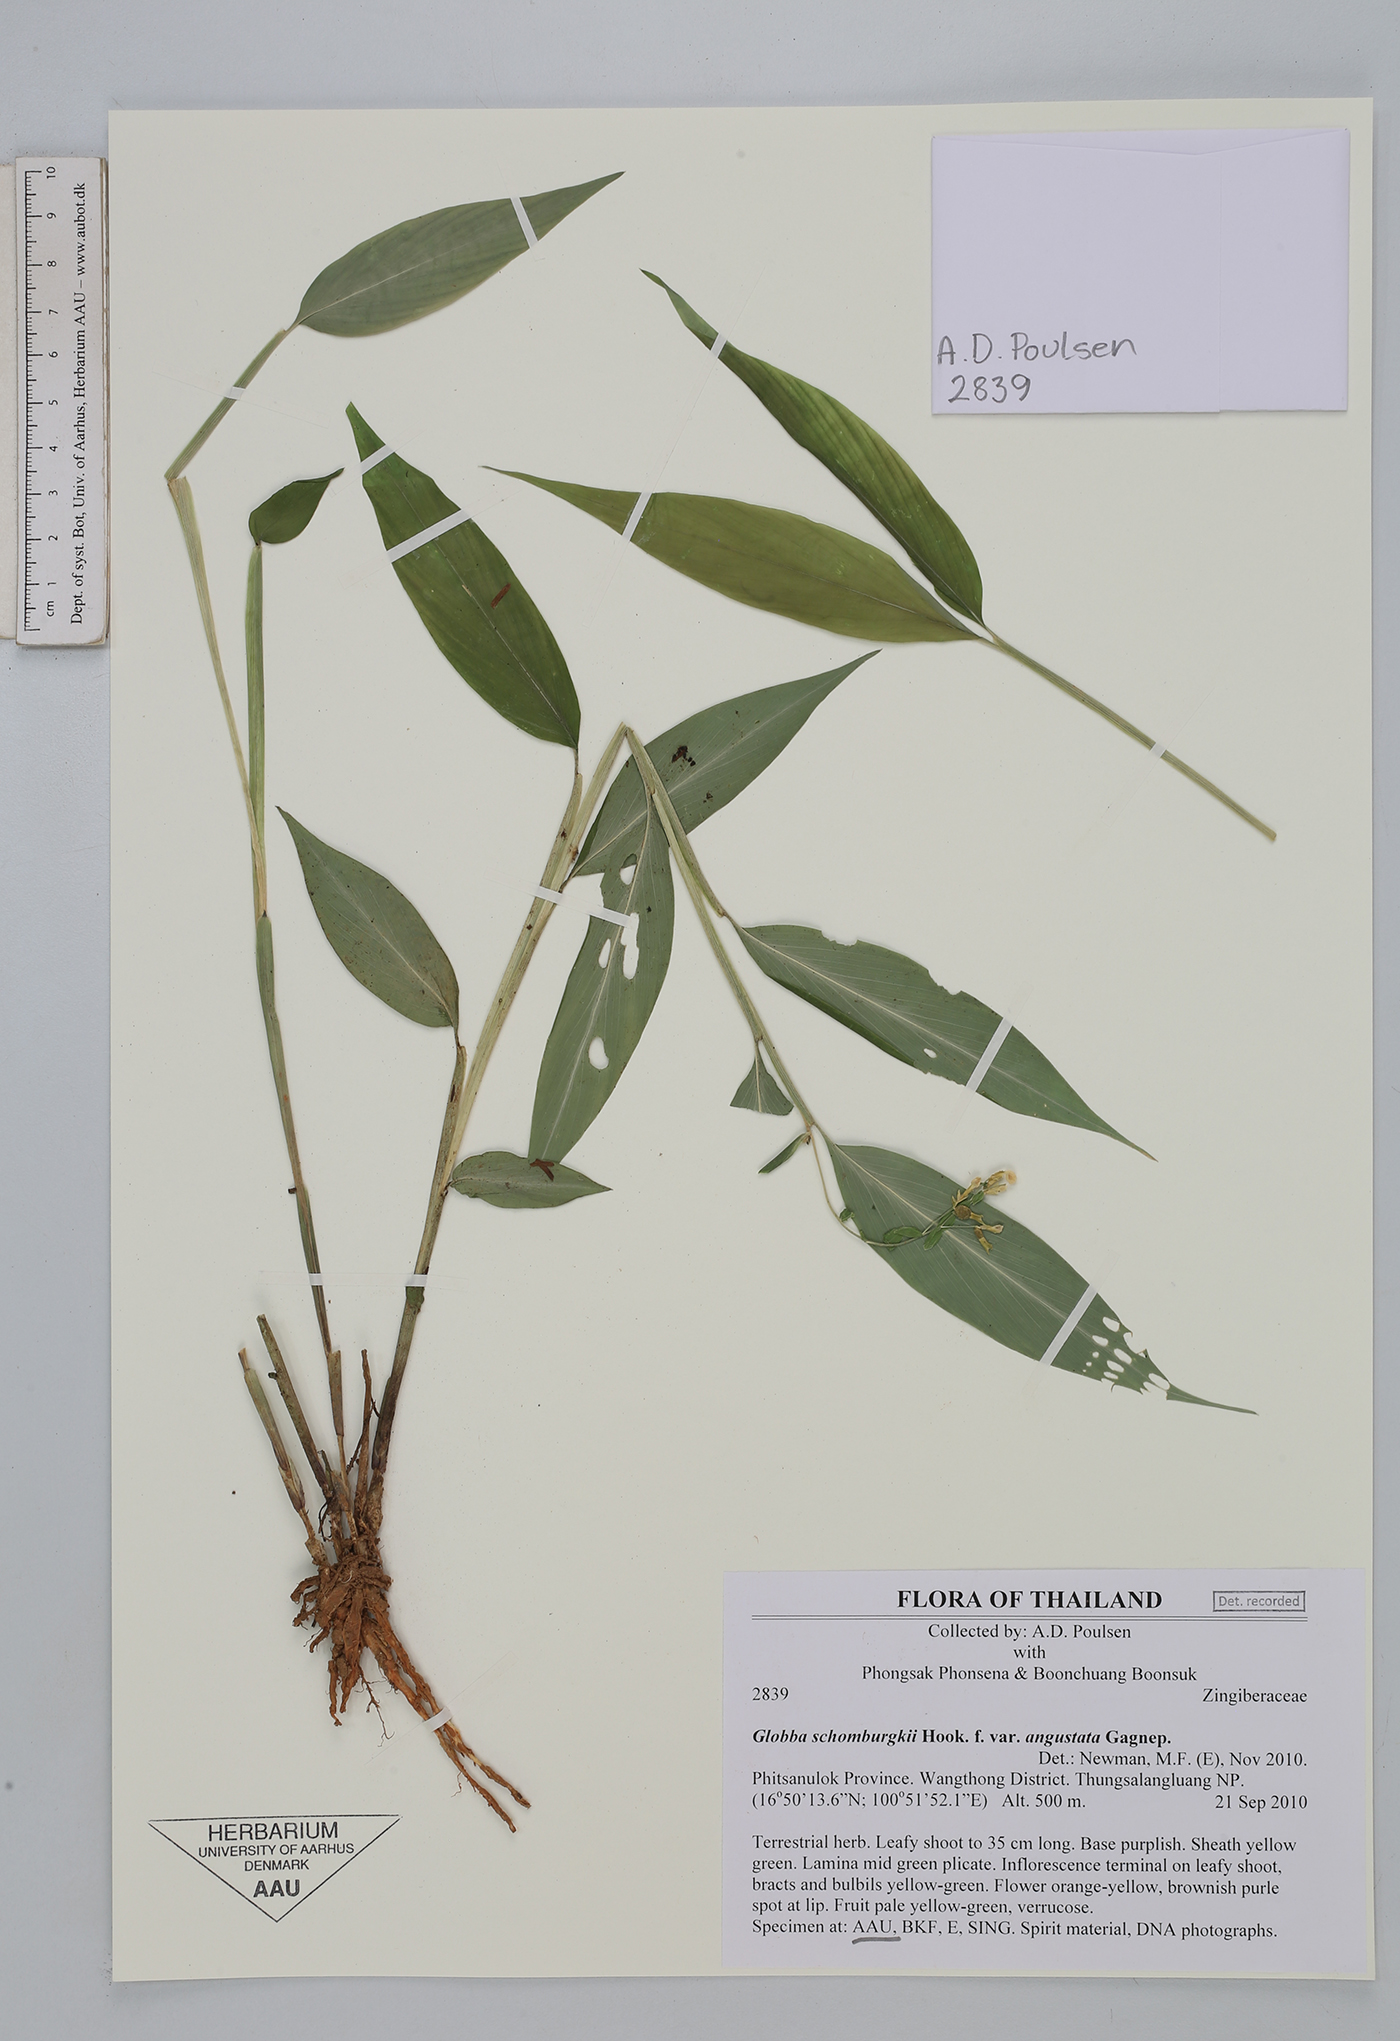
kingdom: Plantae
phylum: Tracheophyta
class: Liliopsida
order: Zingiberales
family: Zingiberaceae
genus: Globba
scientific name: Globba schomburgkii
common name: Dancing girl ginger
